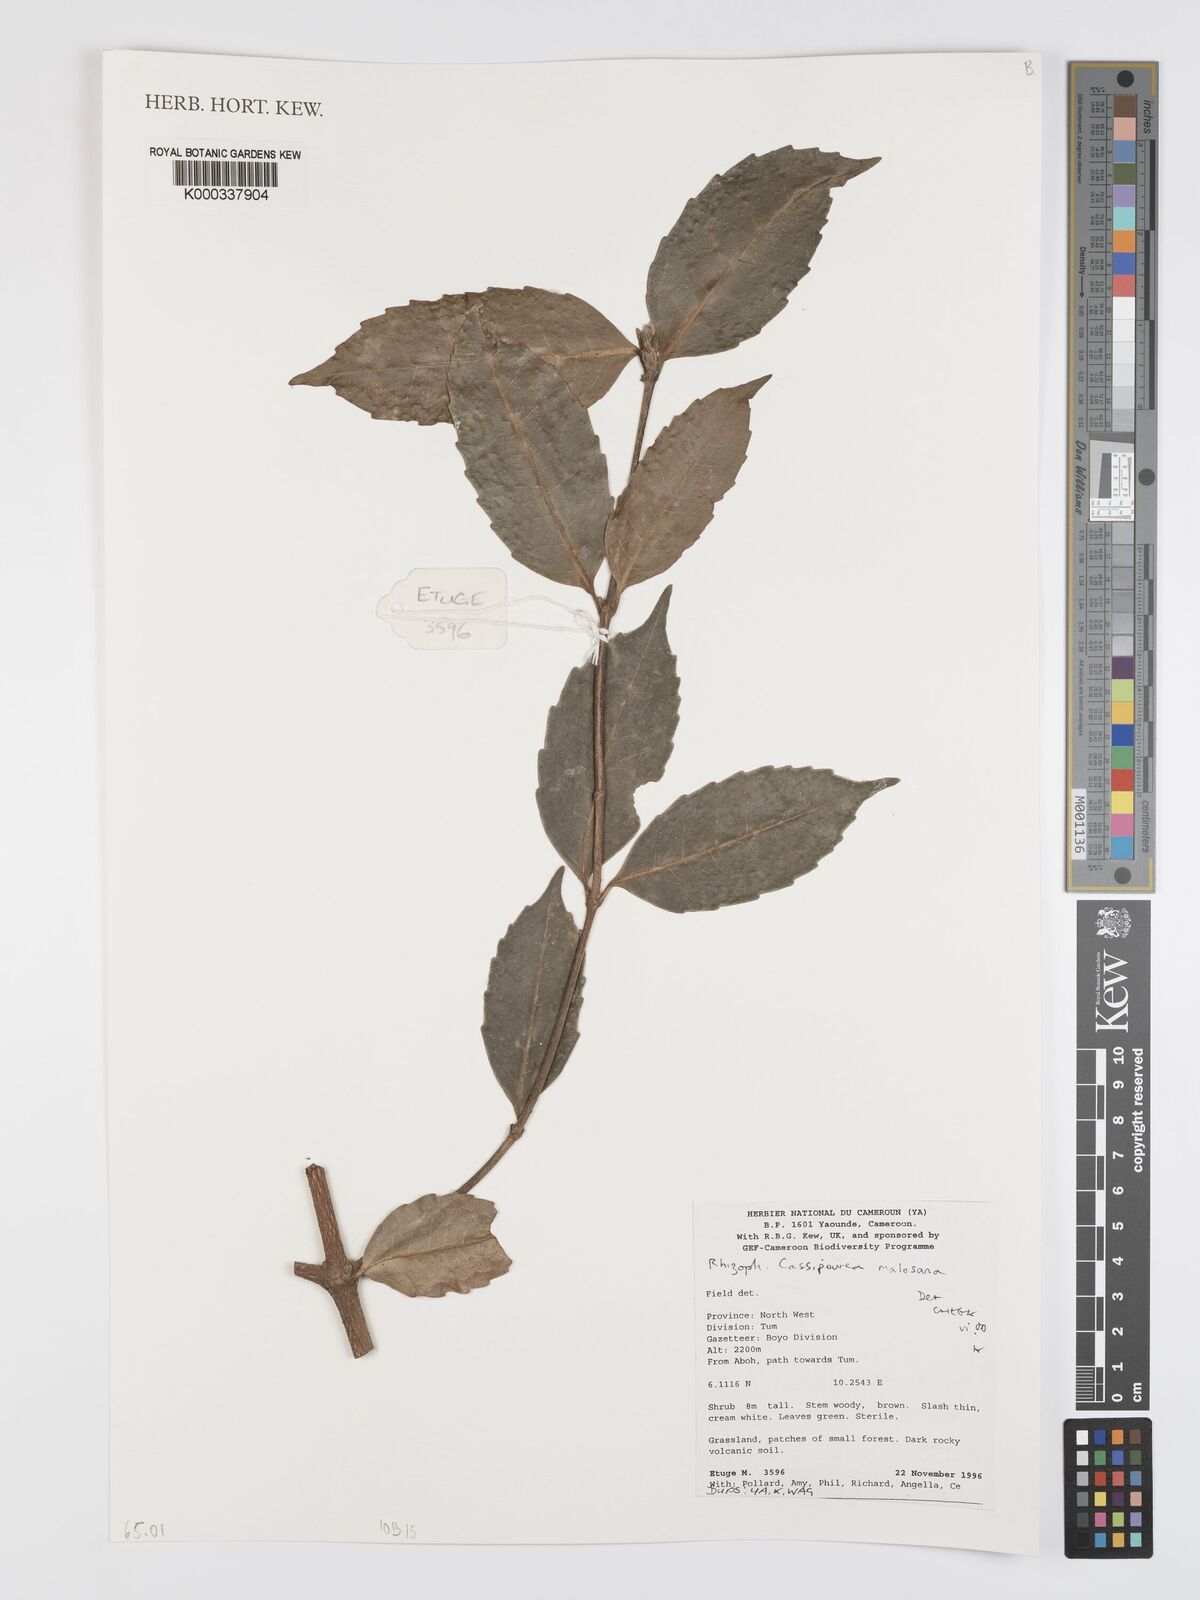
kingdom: Plantae
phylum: Tracheophyta
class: Magnoliopsida
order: Malpighiales
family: Rhizophoraceae
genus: Cassipourea
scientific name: Cassipourea malosana
